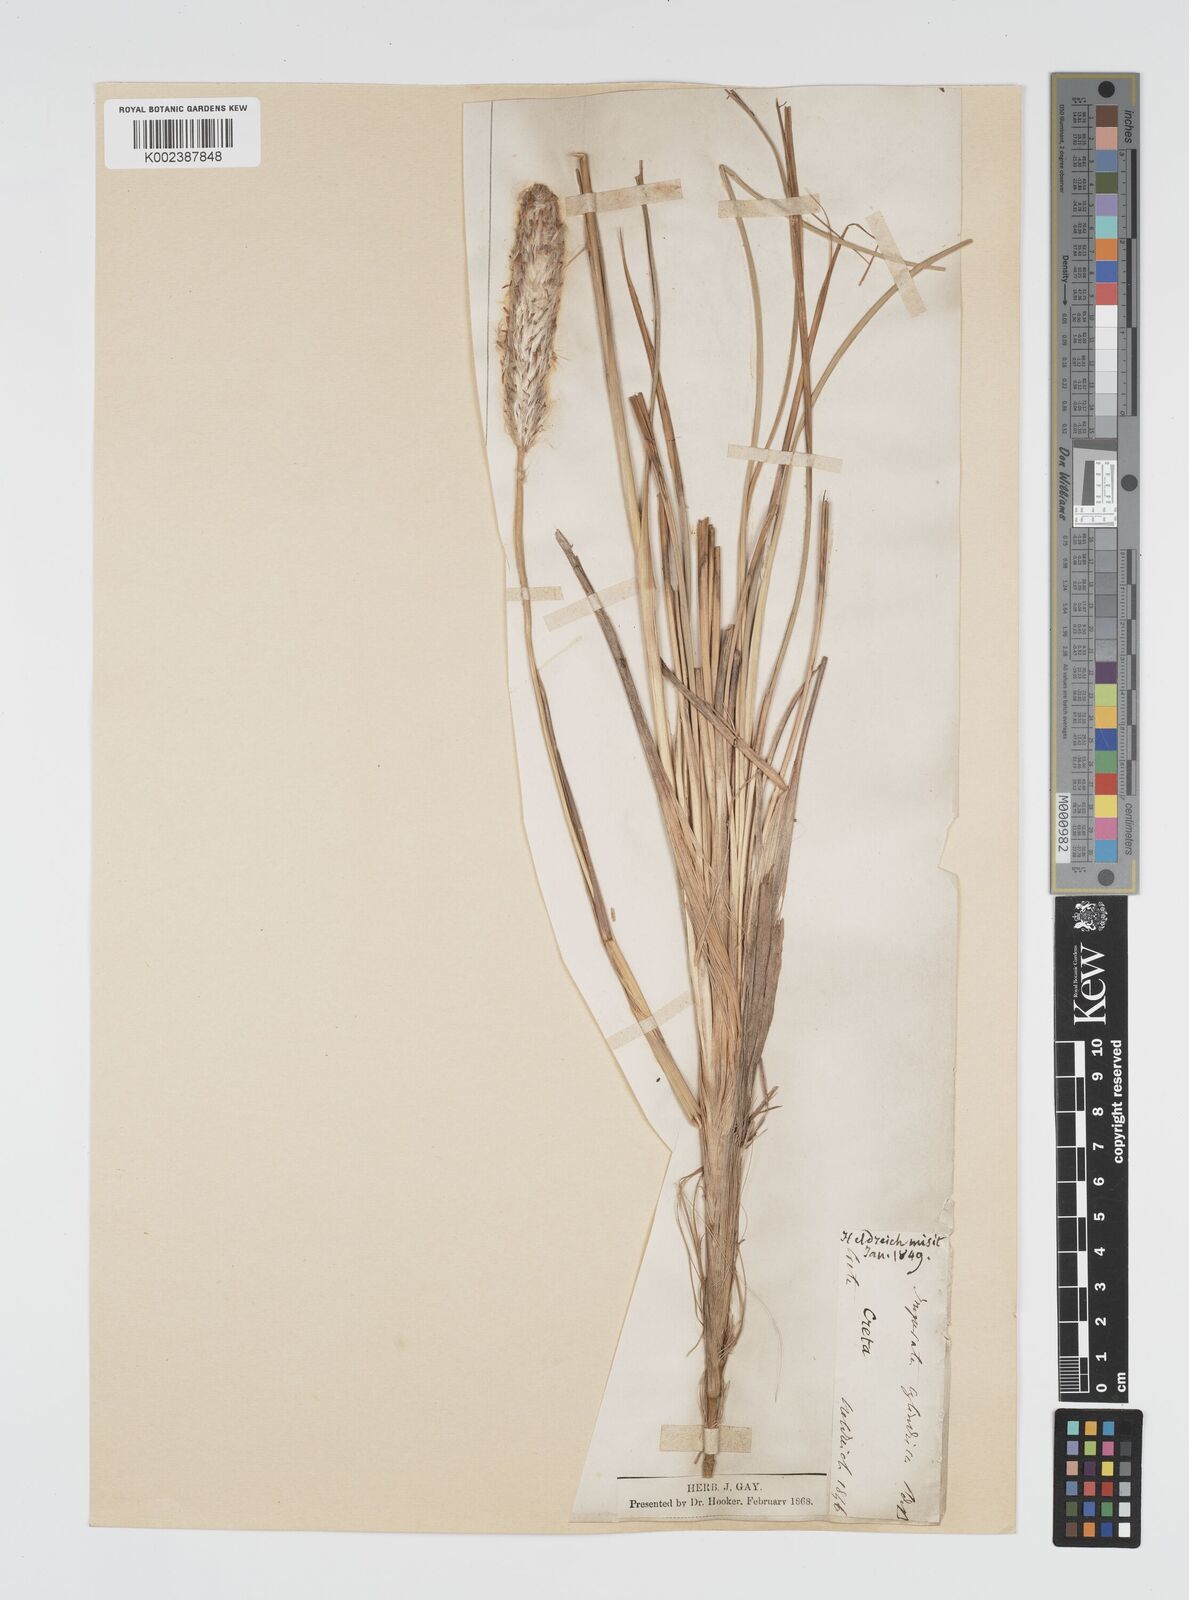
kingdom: Plantae
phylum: Tracheophyta
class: Liliopsida
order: Poales
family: Poaceae
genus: Imperata
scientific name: Imperata cylindrica
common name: Cogongrass
